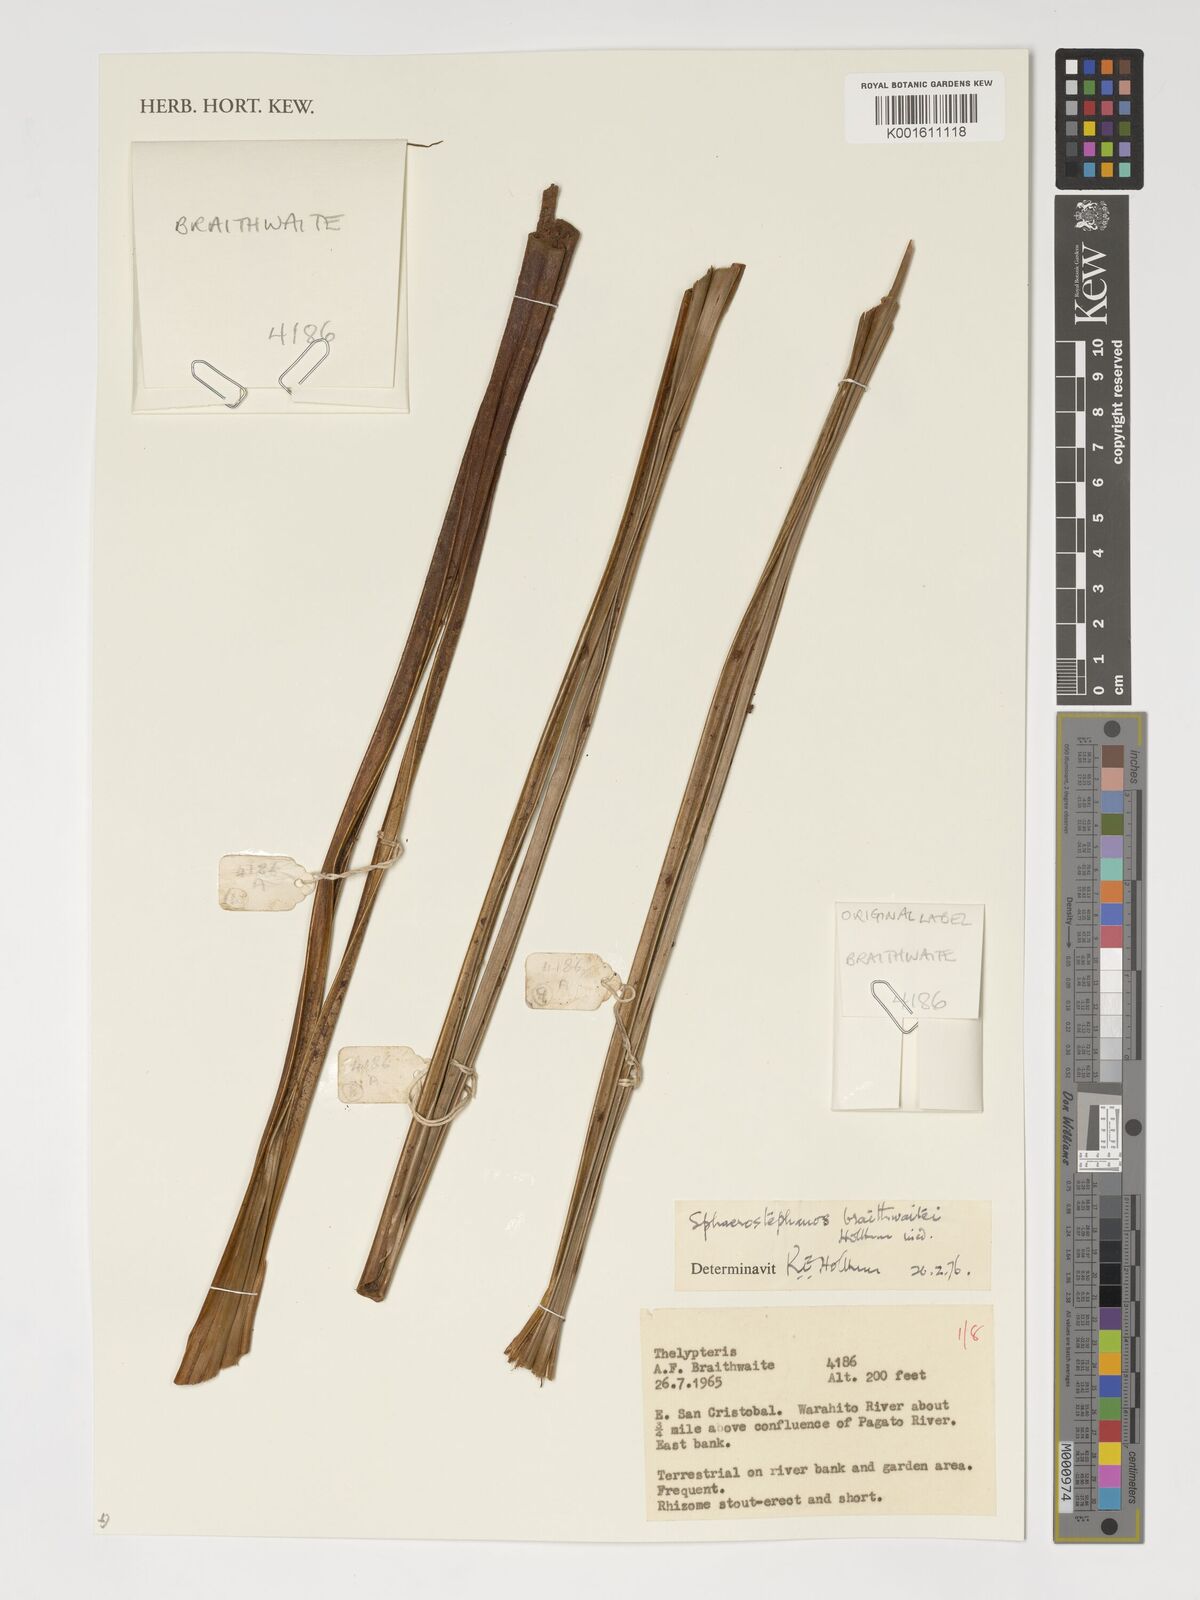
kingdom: Plantae
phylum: Tracheophyta
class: Polypodiopsida
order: Polypodiales
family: Thelypteridaceae
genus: Sphaerostephanos
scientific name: Sphaerostephanos braithwaitei
